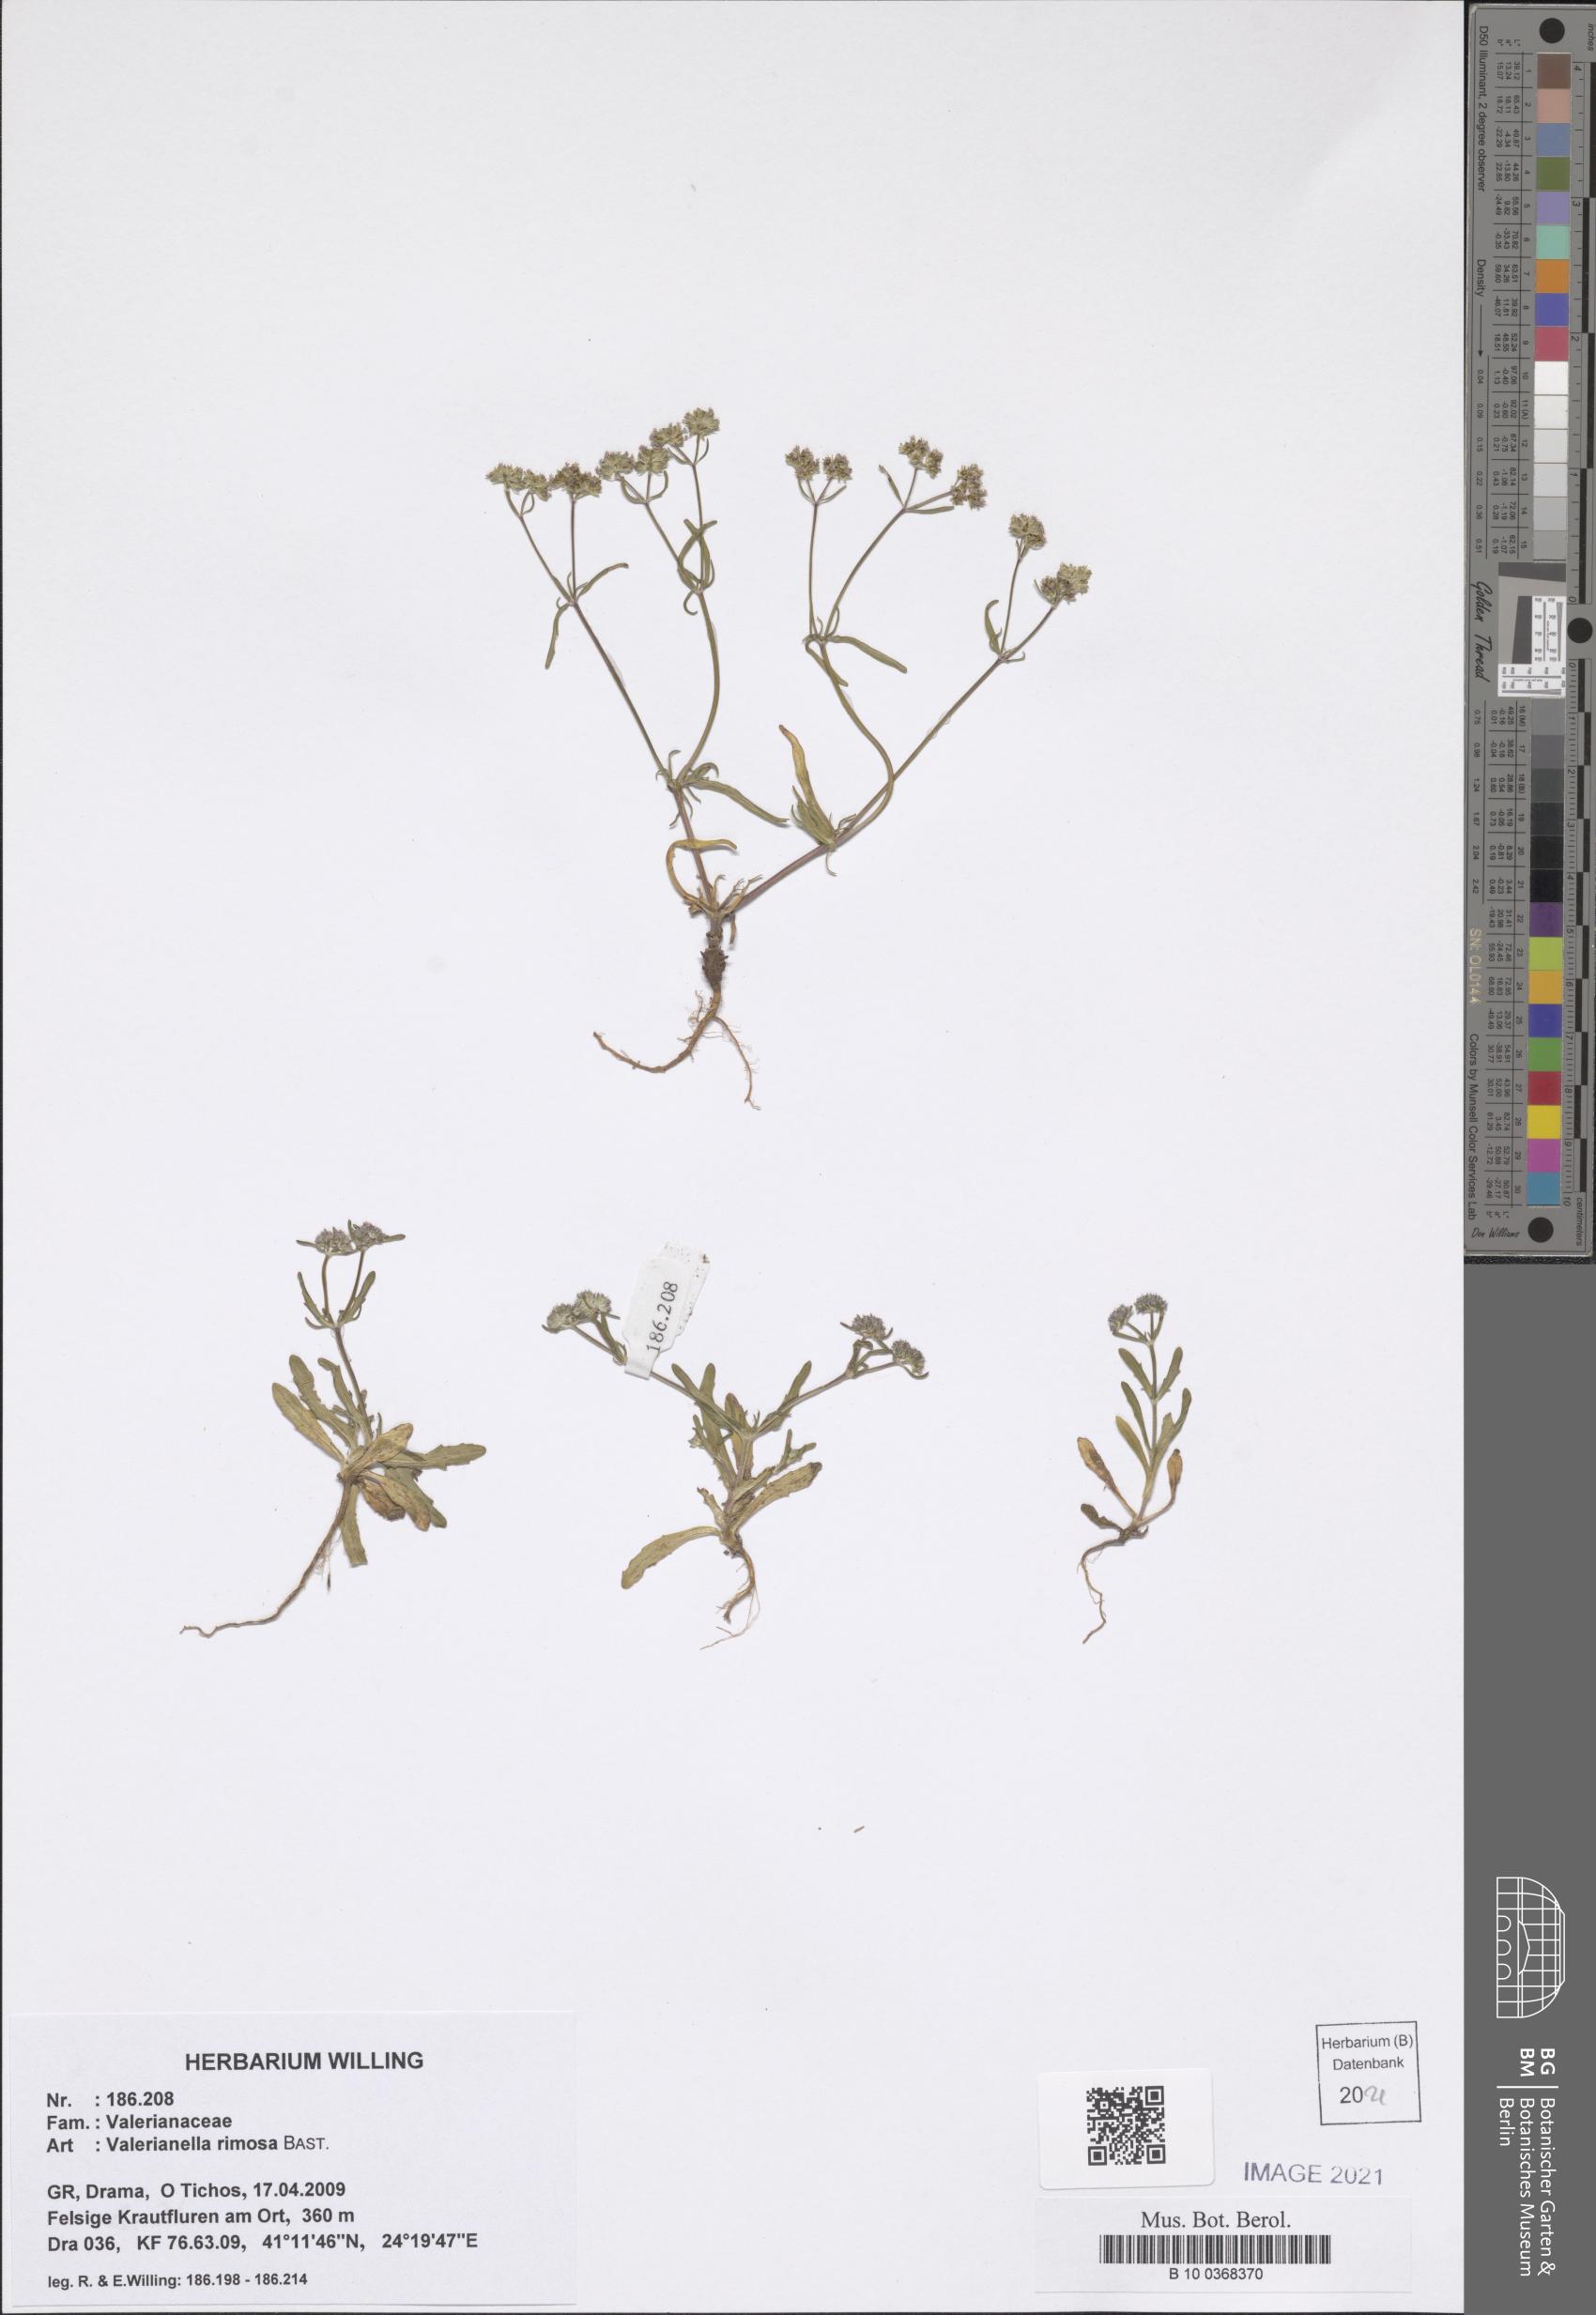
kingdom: Plantae
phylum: Tracheophyta
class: Magnoliopsida
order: Dipsacales
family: Caprifoliaceae
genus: Valerianella
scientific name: Valerianella rimosa
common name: Broad-fruited cornsalad
